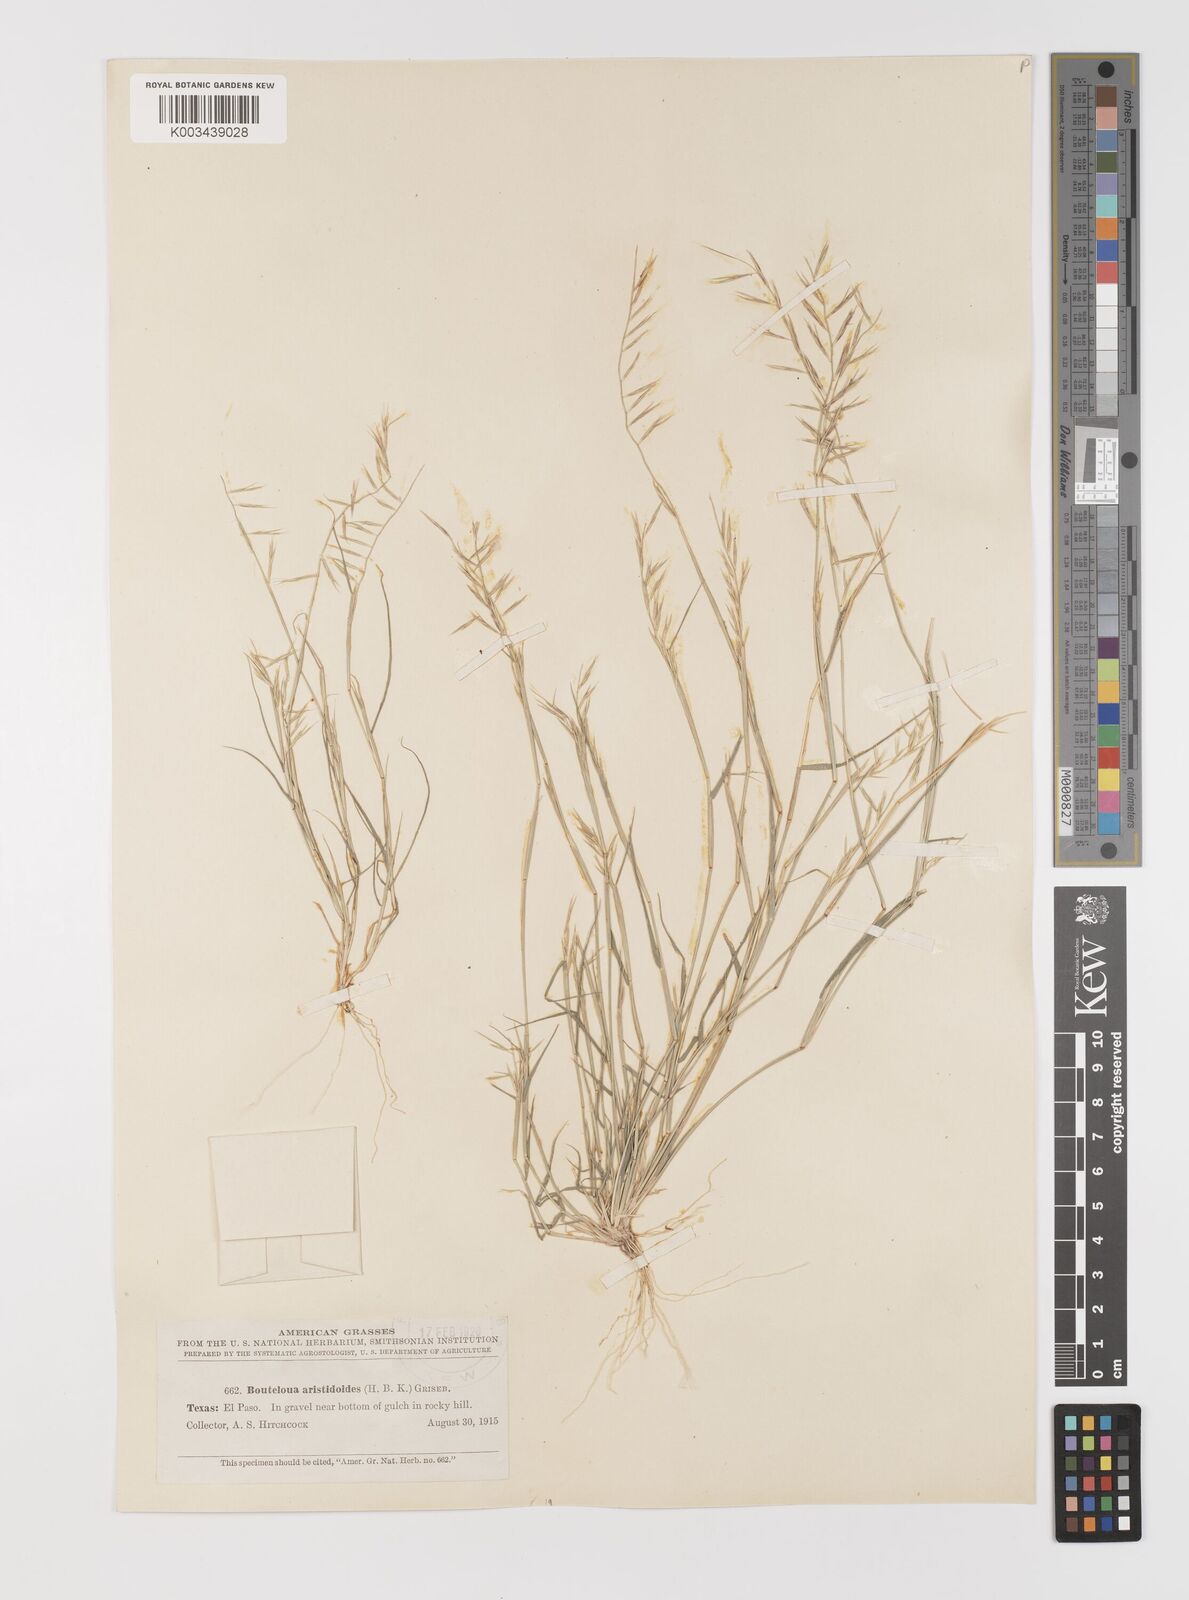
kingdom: Plantae
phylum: Tracheophyta
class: Liliopsida
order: Poales
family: Poaceae
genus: Bouteloua
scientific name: Bouteloua aristidoides
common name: Needle grama
